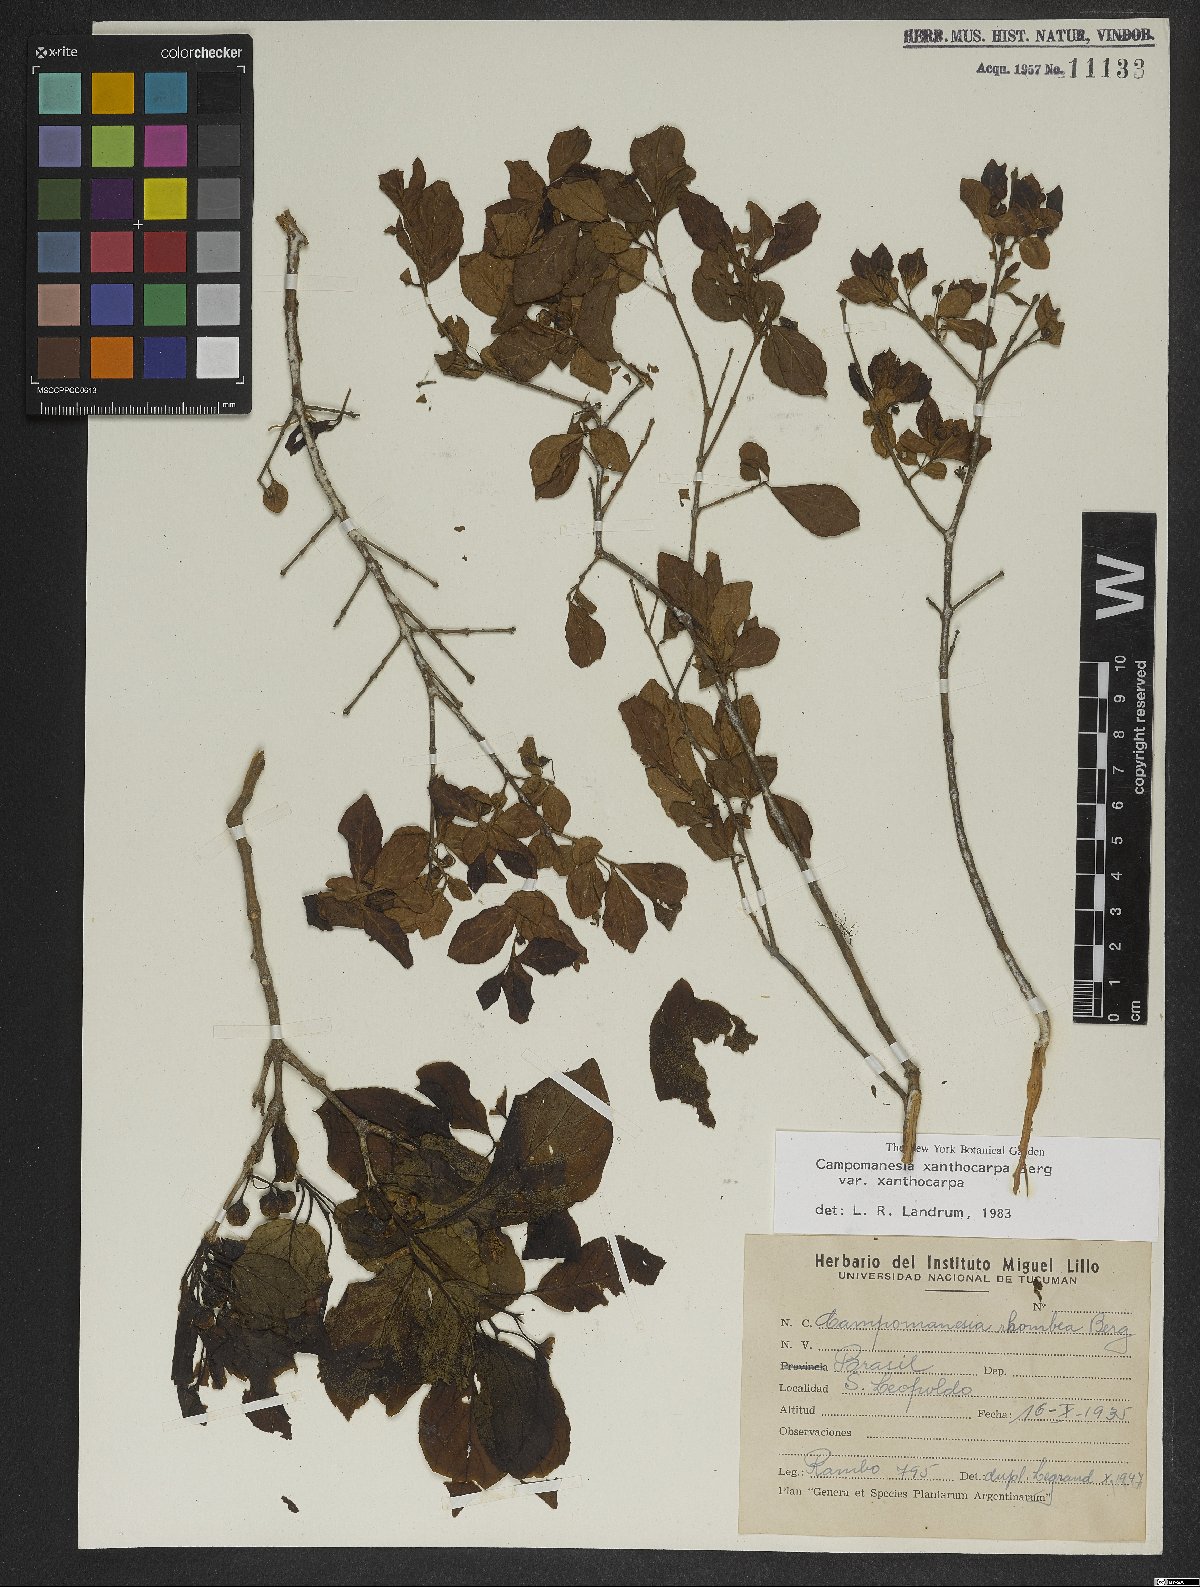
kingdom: Plantae
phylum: Tracheophyta
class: Magnoliopsida
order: Myrtales
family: Myrtaceae
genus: Campomanesia
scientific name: Campomanesia xanthocarpa
